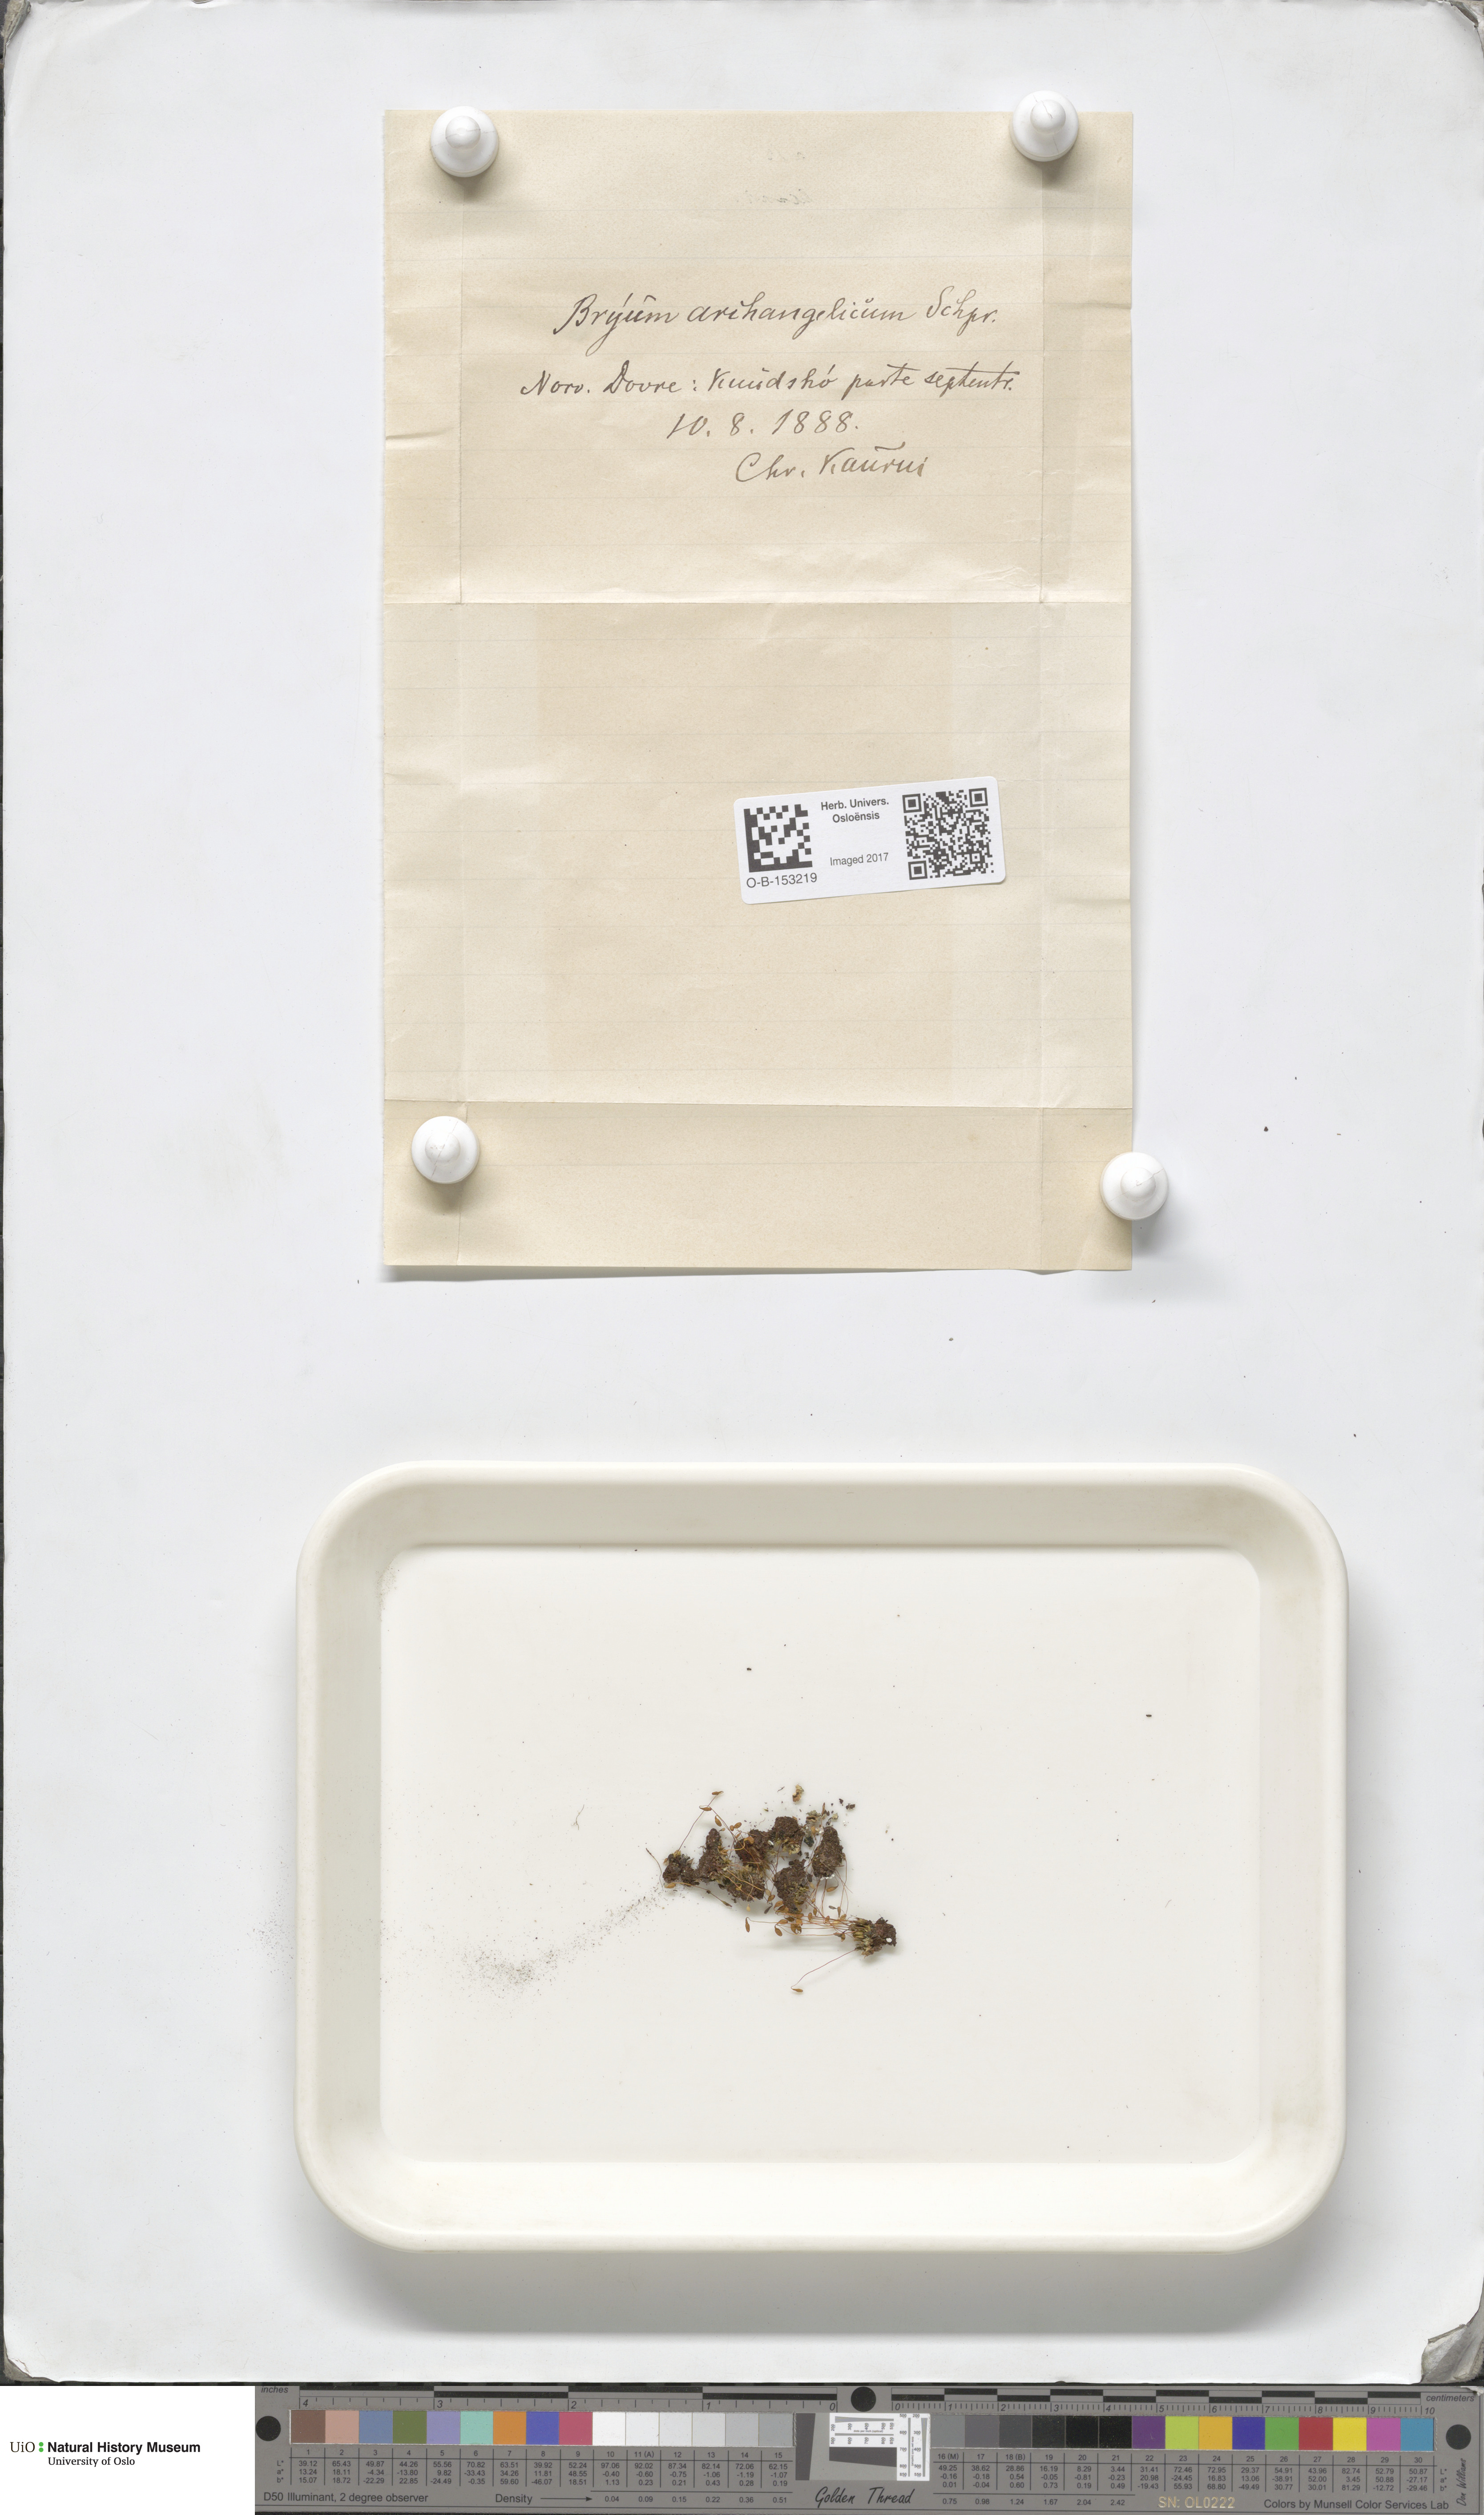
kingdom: Plantae
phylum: Bryophyta
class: Bryopsida
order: Bryales
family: Bryaceae
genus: Ptychostomum
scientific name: Ptychostomum inclinatum
